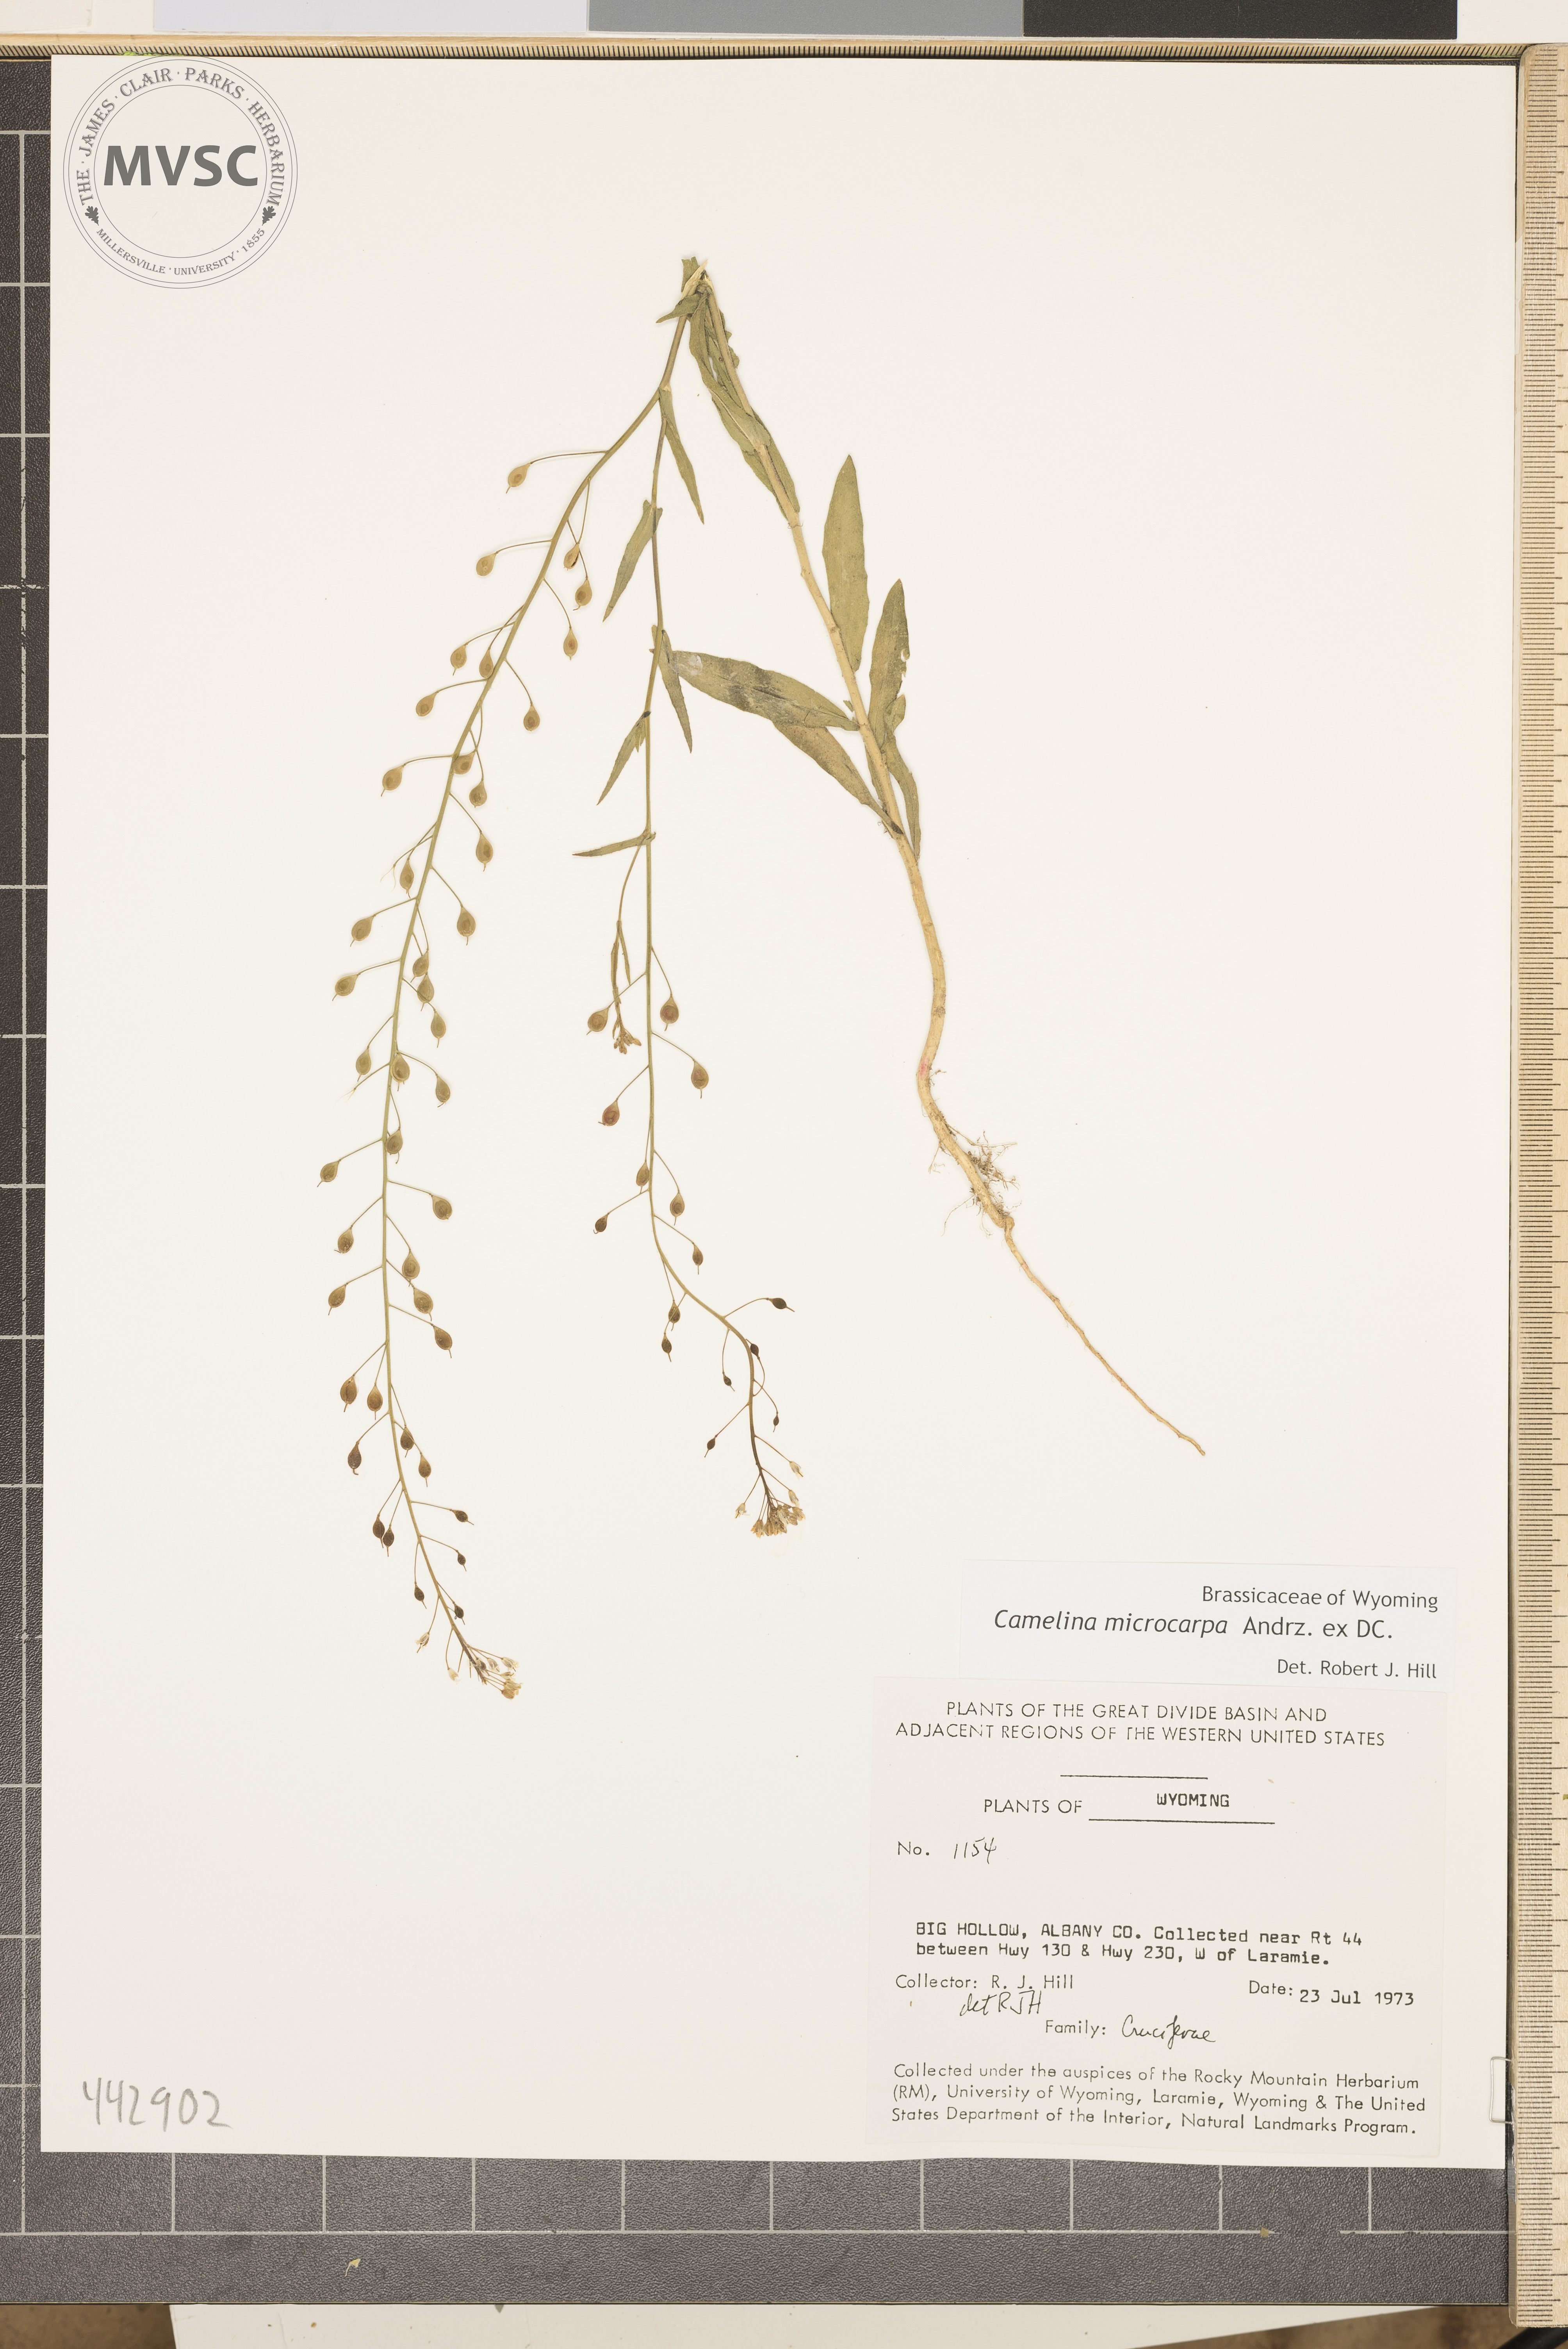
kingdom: Plantae
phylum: Tracheophyta
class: Magnoliopsida
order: Brassicales
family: Brassicaceae
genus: Camelina
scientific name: Camelina microcarpa
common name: Lesser gold-of-pleasure
